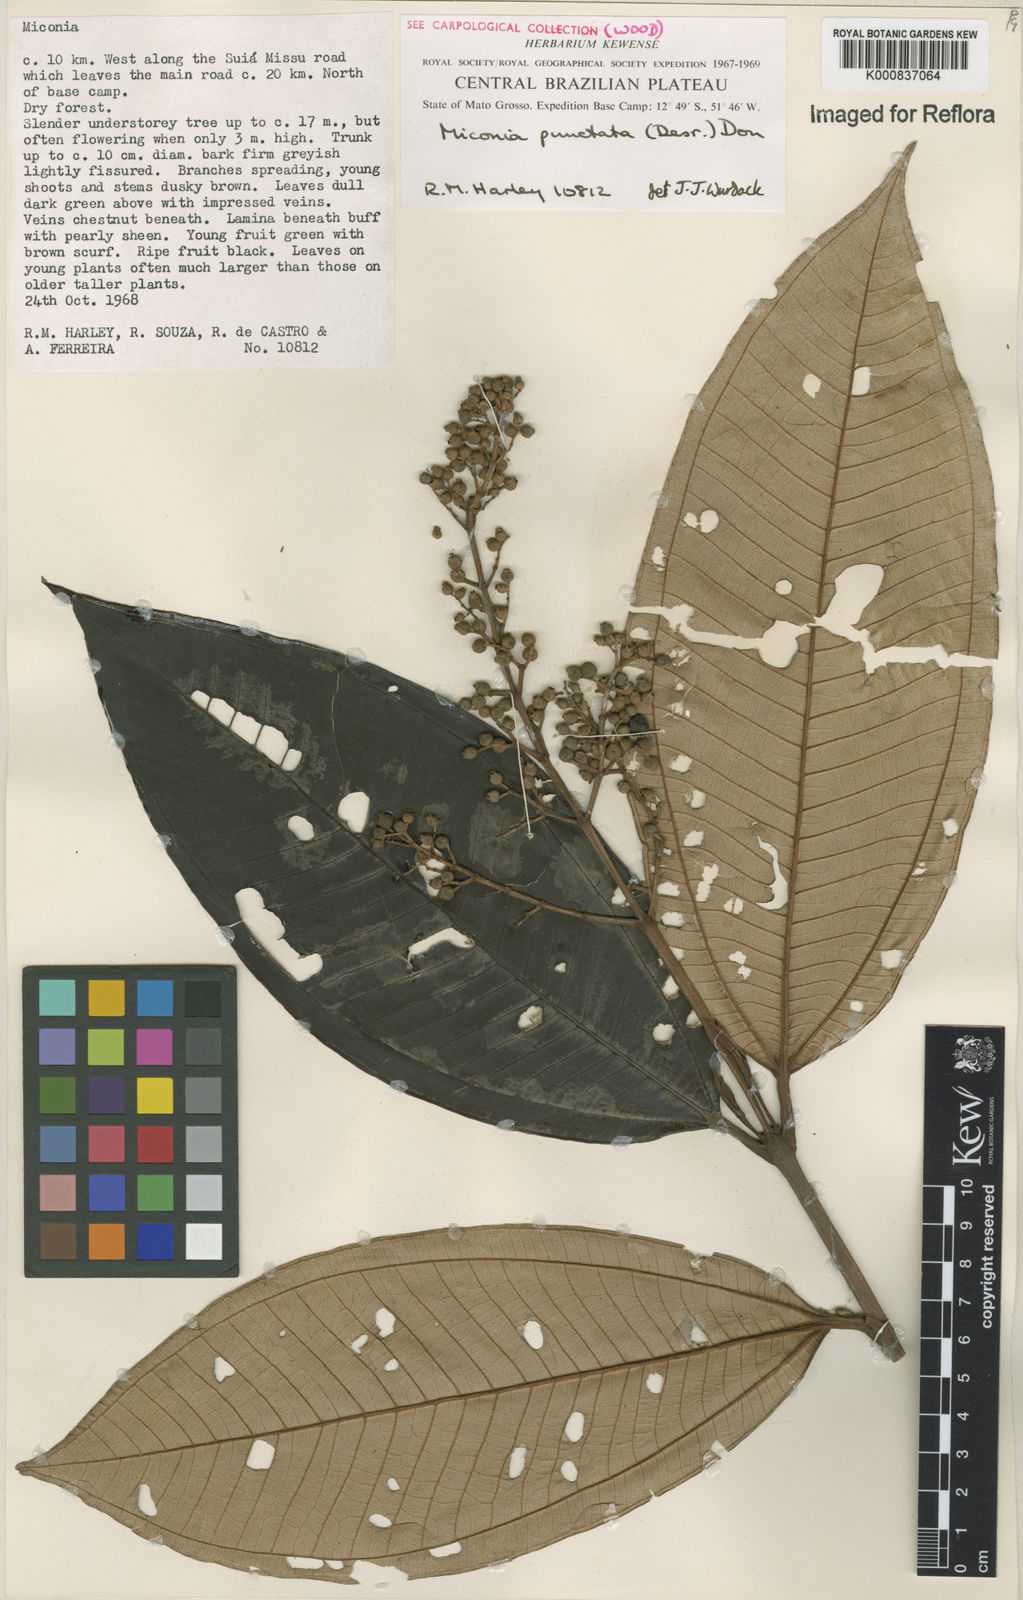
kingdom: Plantae
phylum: Tracheophyta
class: Magnoliopsida
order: Myrtales
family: Melastomataceae
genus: Miconia
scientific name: Miconia punctata
